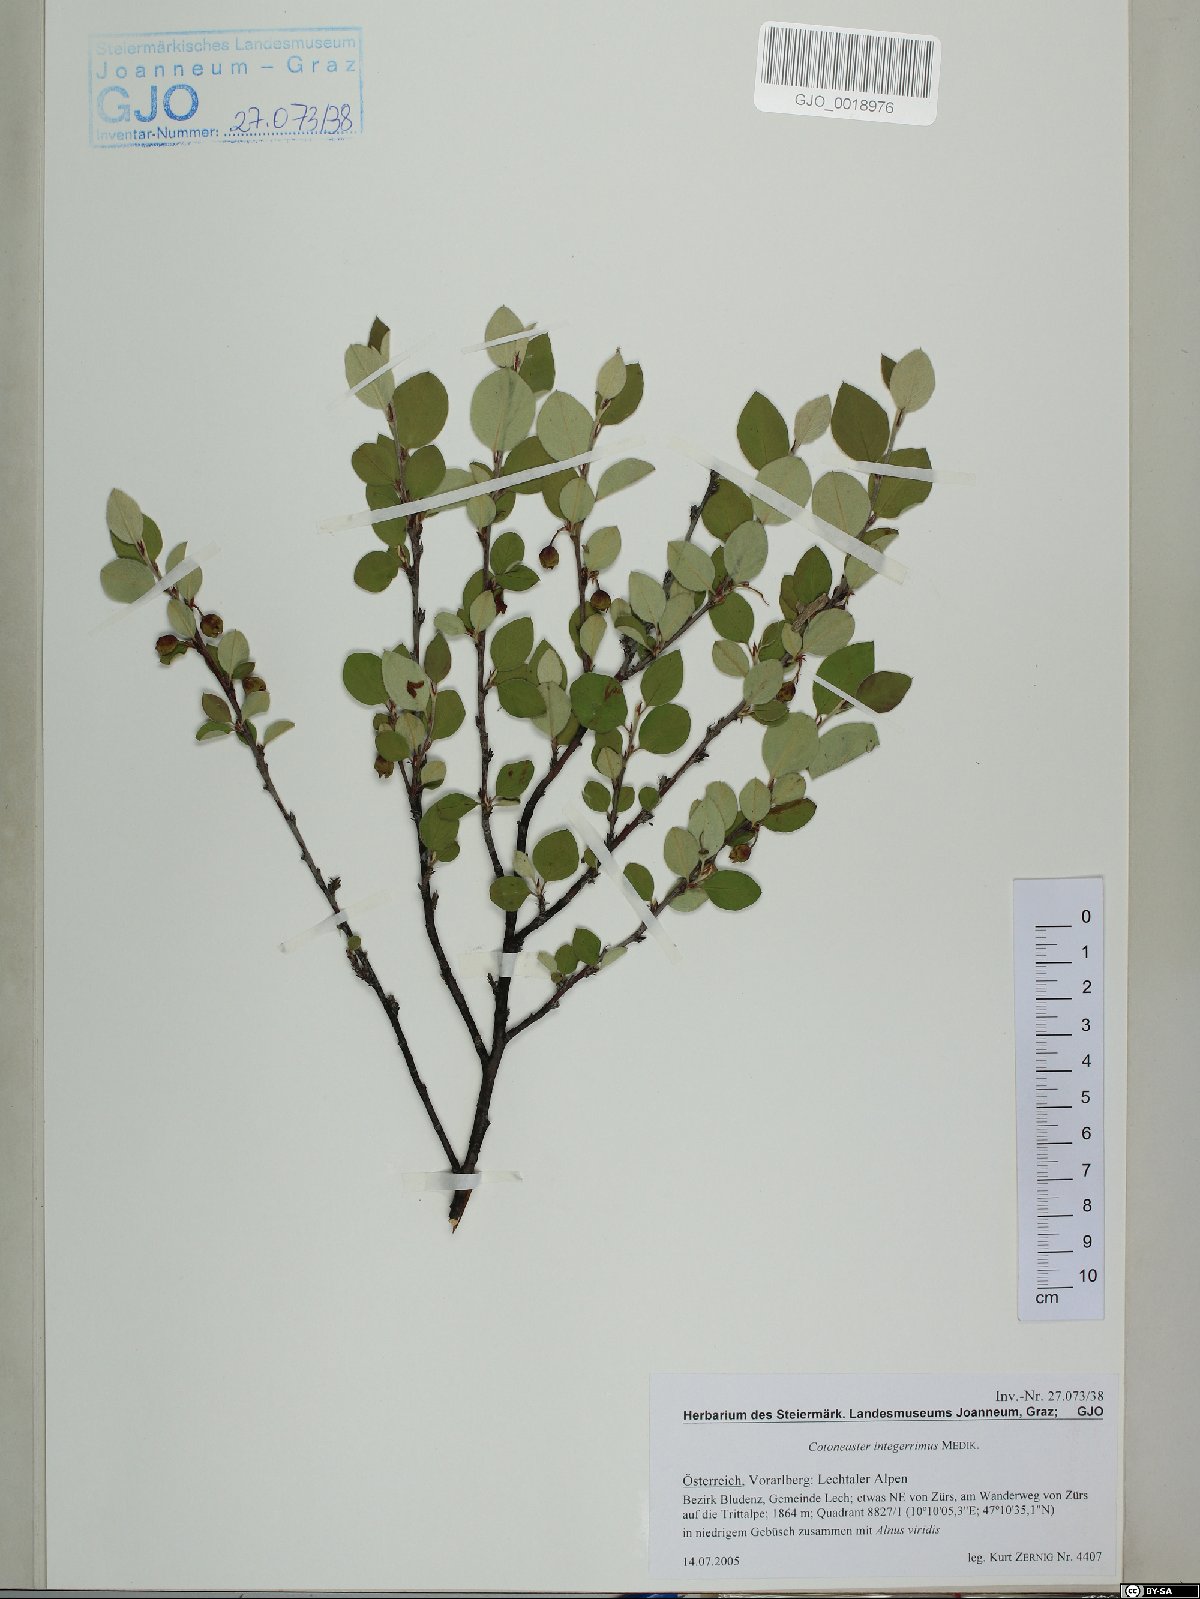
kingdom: Plantae
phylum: Tracheophyta
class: Magnoliopsida
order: Rosales
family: Rosaceae
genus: Cotoneaster
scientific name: Cotoneaster integerrimus
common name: Wild cotoneaster
